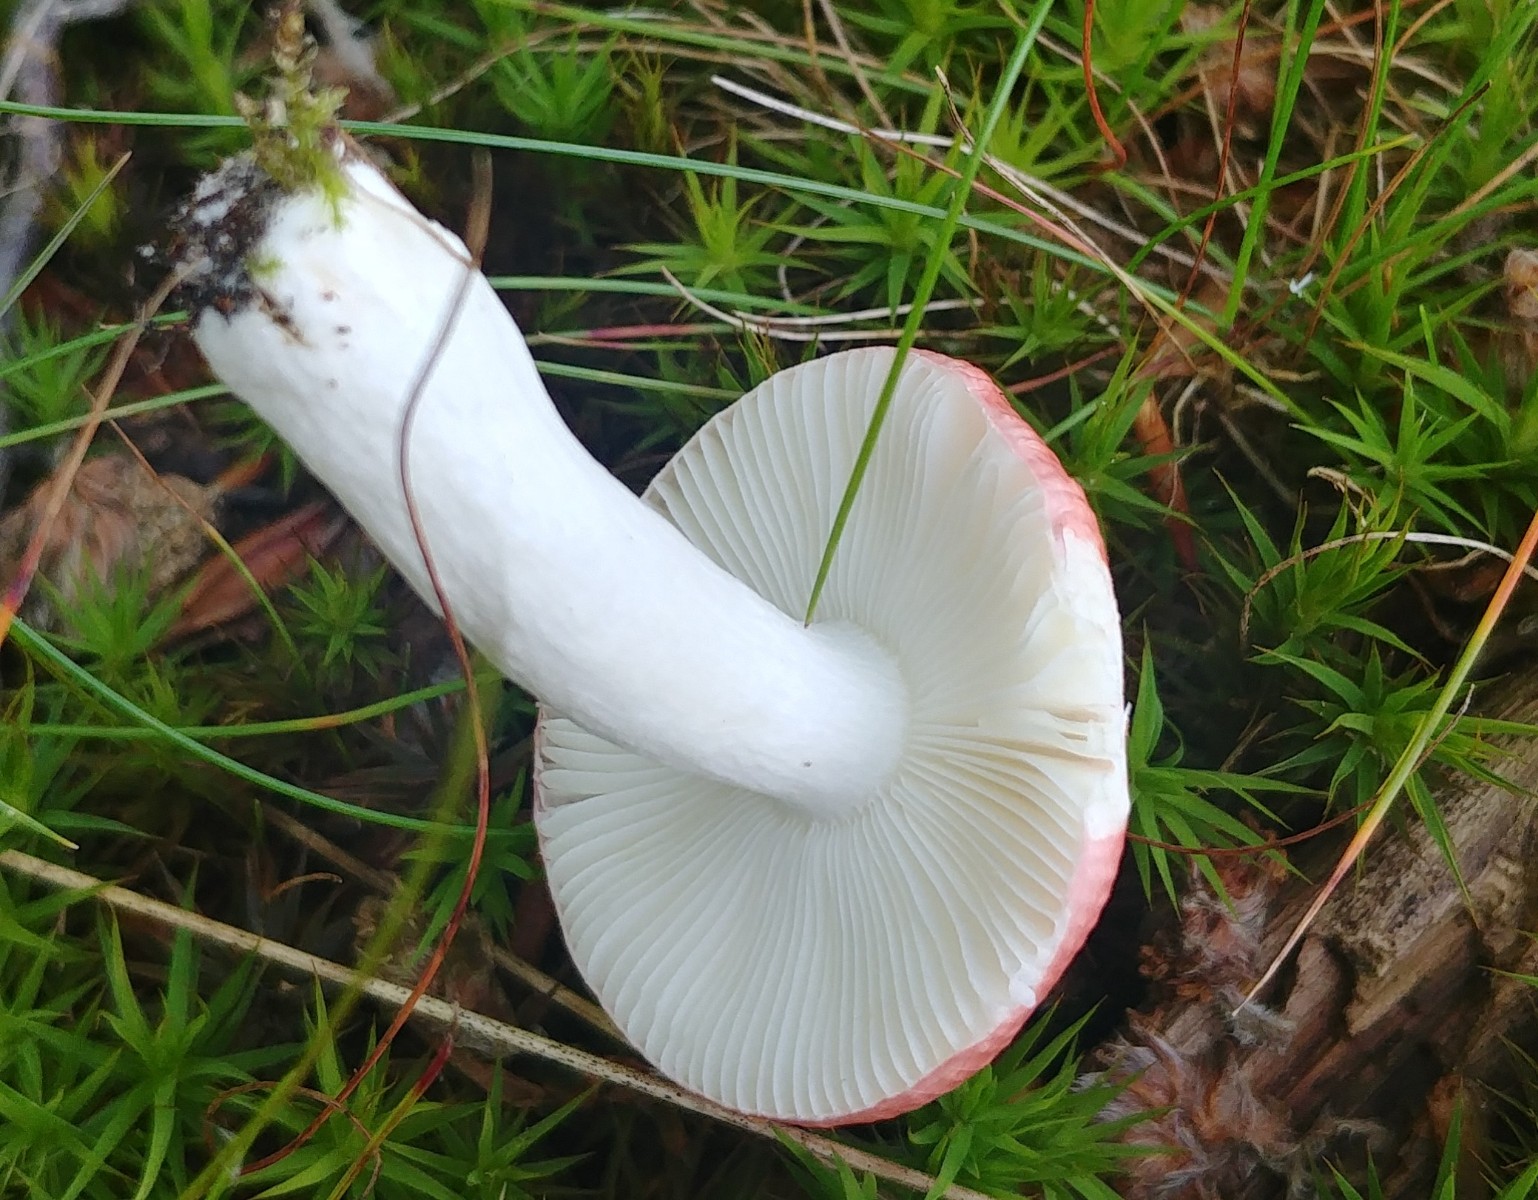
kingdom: Fungi
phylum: Basidiomycota
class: Agaricomycetes
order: Russulales
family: Russulaceae
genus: Russula
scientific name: Russula nobilis
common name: lille gift-skørhat
